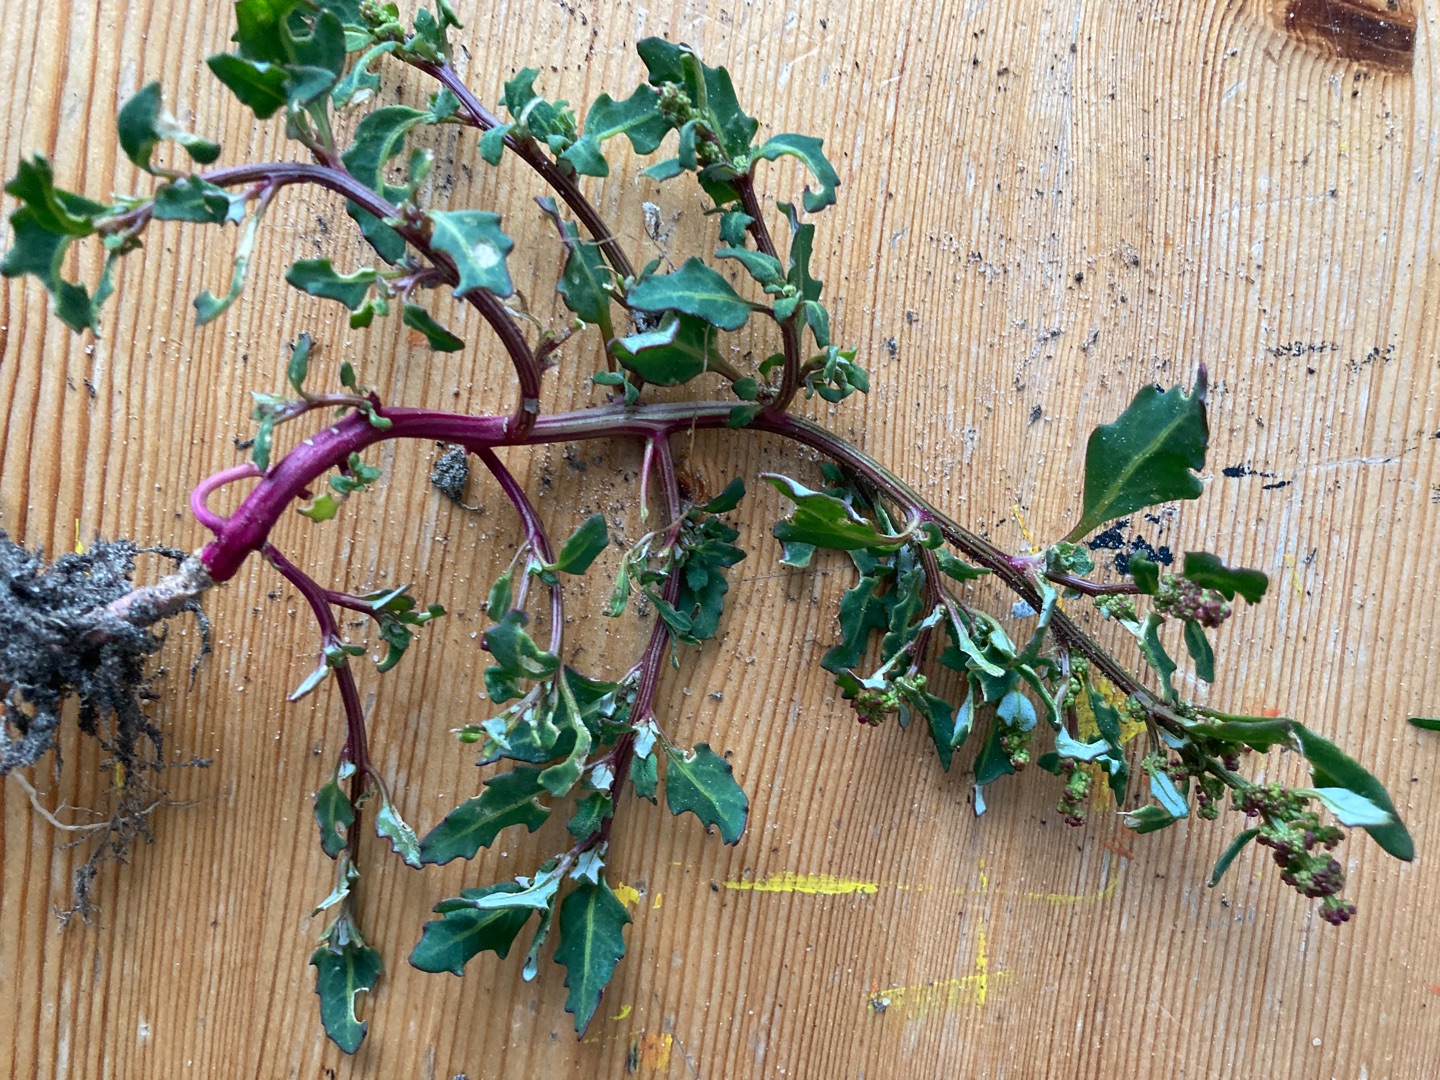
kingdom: Plantae
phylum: Tracheophyta
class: Magnoliopsida
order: Caryophyllales
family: Amaranthaceae
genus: Oxybasis
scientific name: Oxybasis glauca
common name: Blågrøn gåsefod
